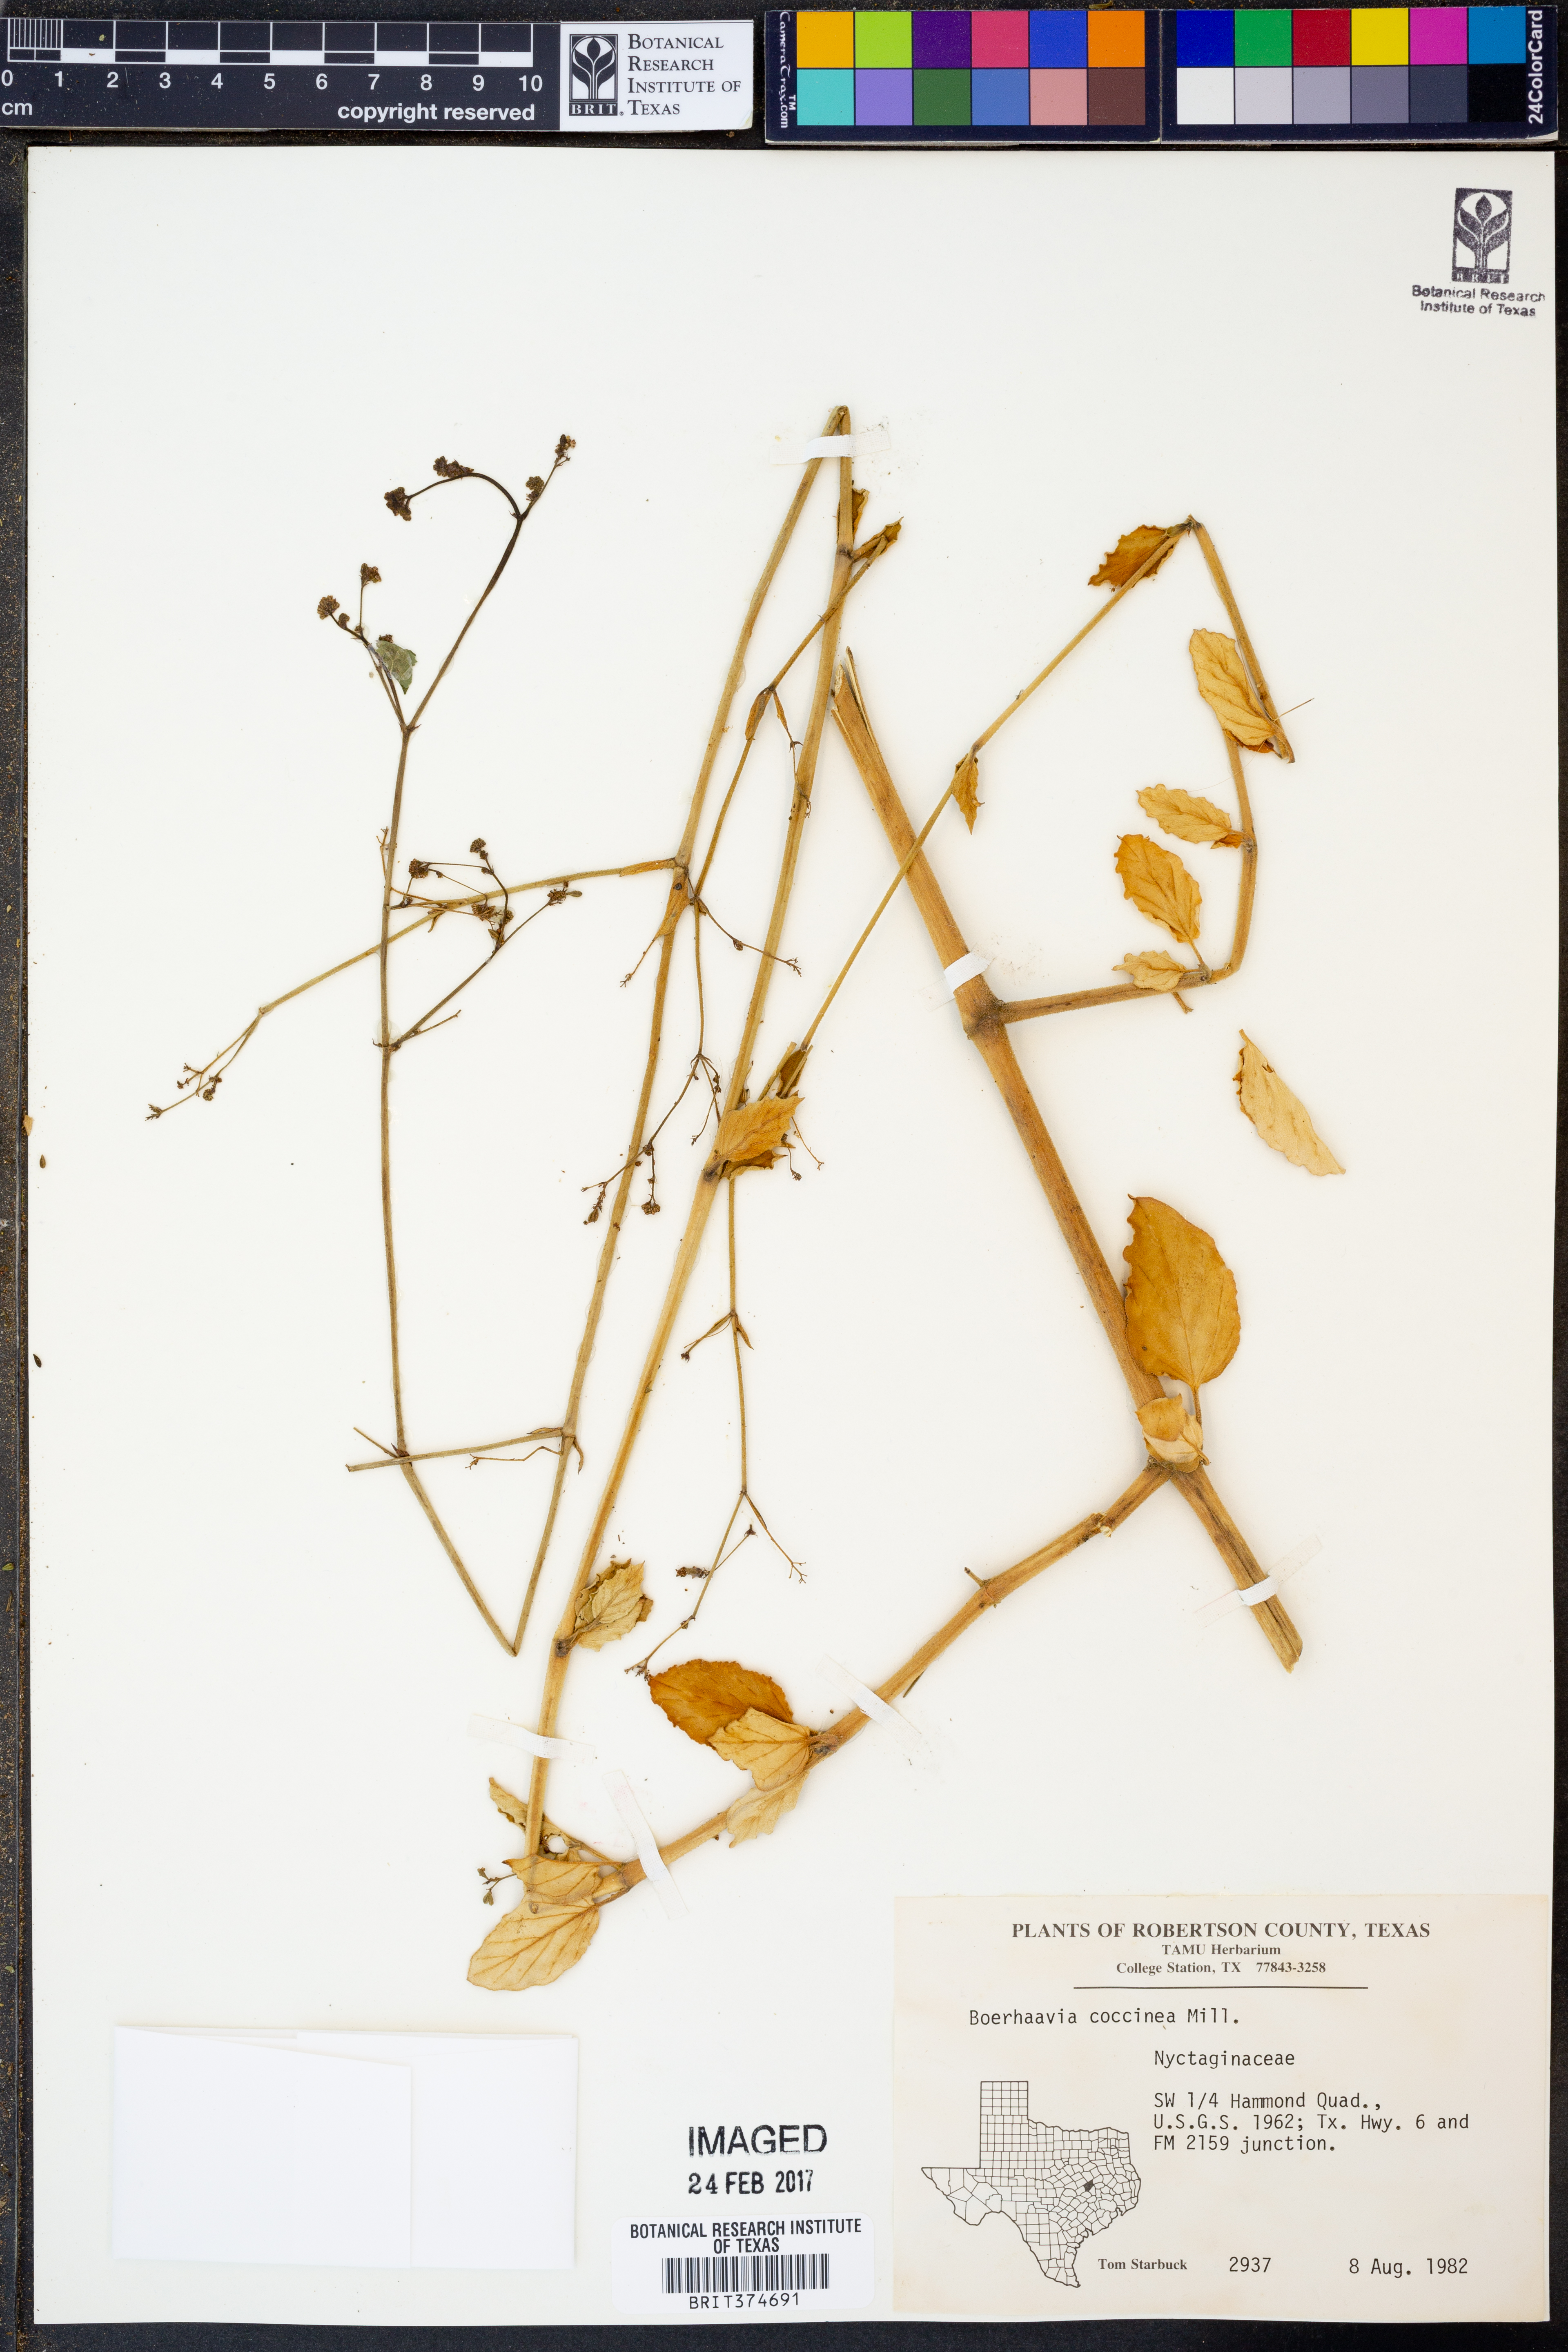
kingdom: Plantae
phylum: Tracheophyta
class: Magnoliopsida
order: Caryophyllales
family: Nyctaginaceae
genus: Boerhavia
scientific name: Boerhavia coccinea
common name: Scarlet spiderling
